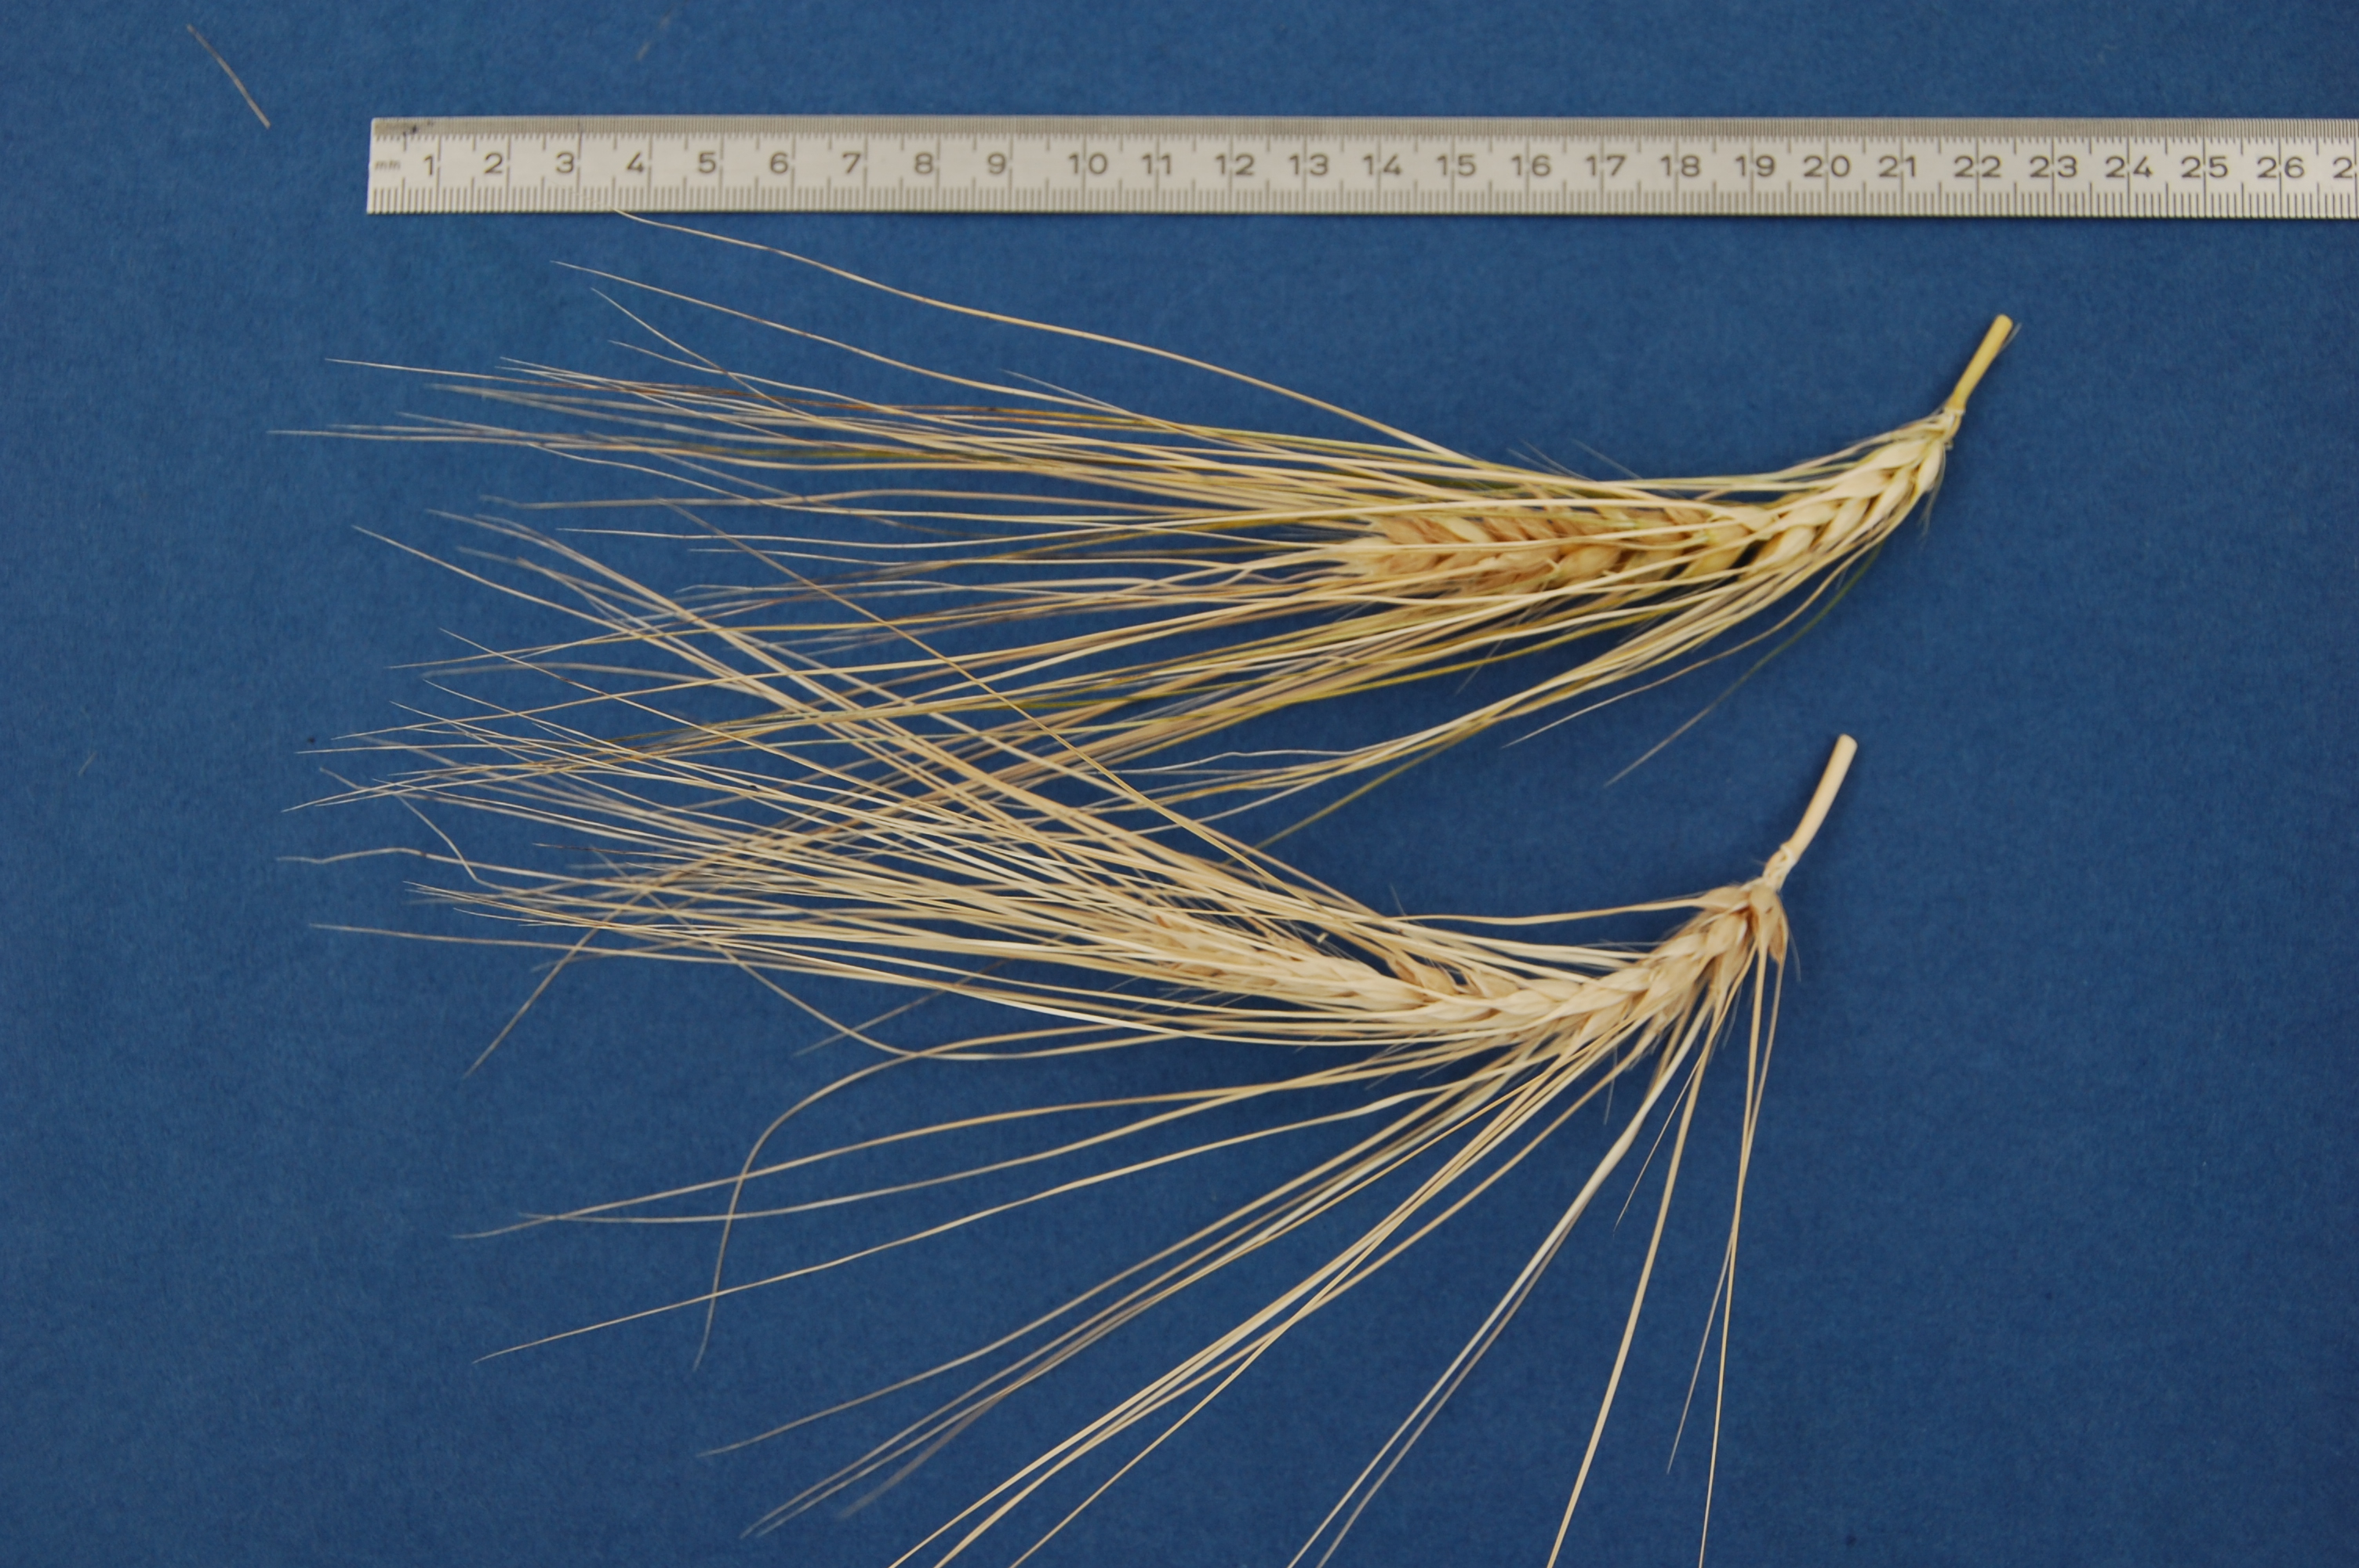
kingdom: Plantae
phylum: Tracheophyta
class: Liliopsida
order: Poales
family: Poaceae
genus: Hordeum
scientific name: Hordeum vulgare
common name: Common barley
